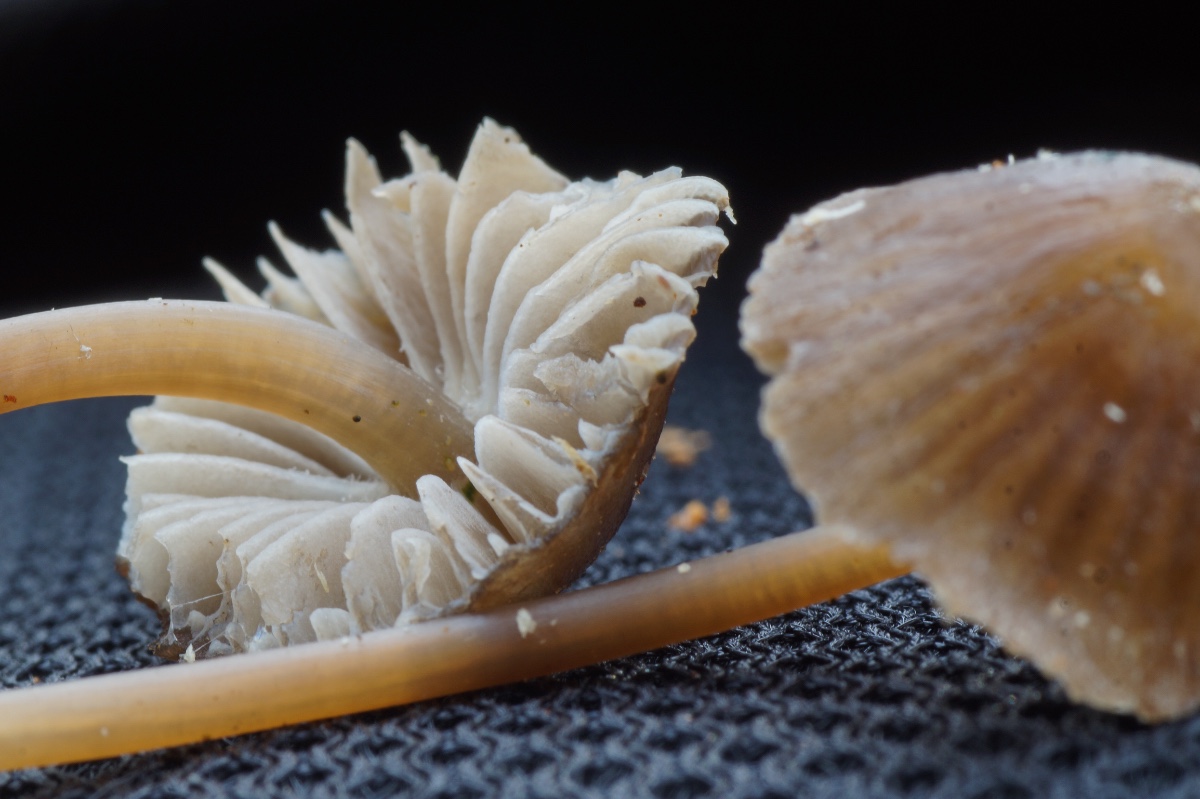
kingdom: Fungi
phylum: Basidiomycota
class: Agaricomycetes
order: Agaricales
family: Mycenaceae
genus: Mycena
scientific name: Mycena stipata
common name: stinkende huesvamp
